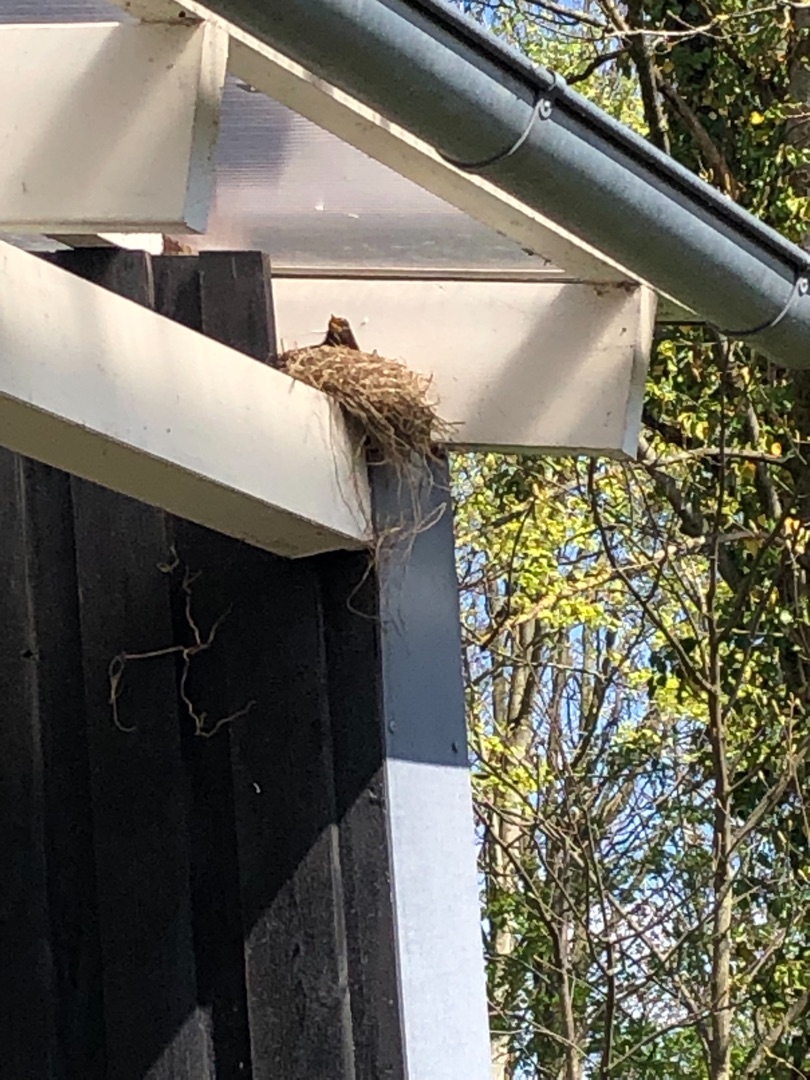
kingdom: Animalia
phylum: Chordata
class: Aves
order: Passeriformes
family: Turdidae
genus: Turdus
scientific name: Turdus merula
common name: Solsort
